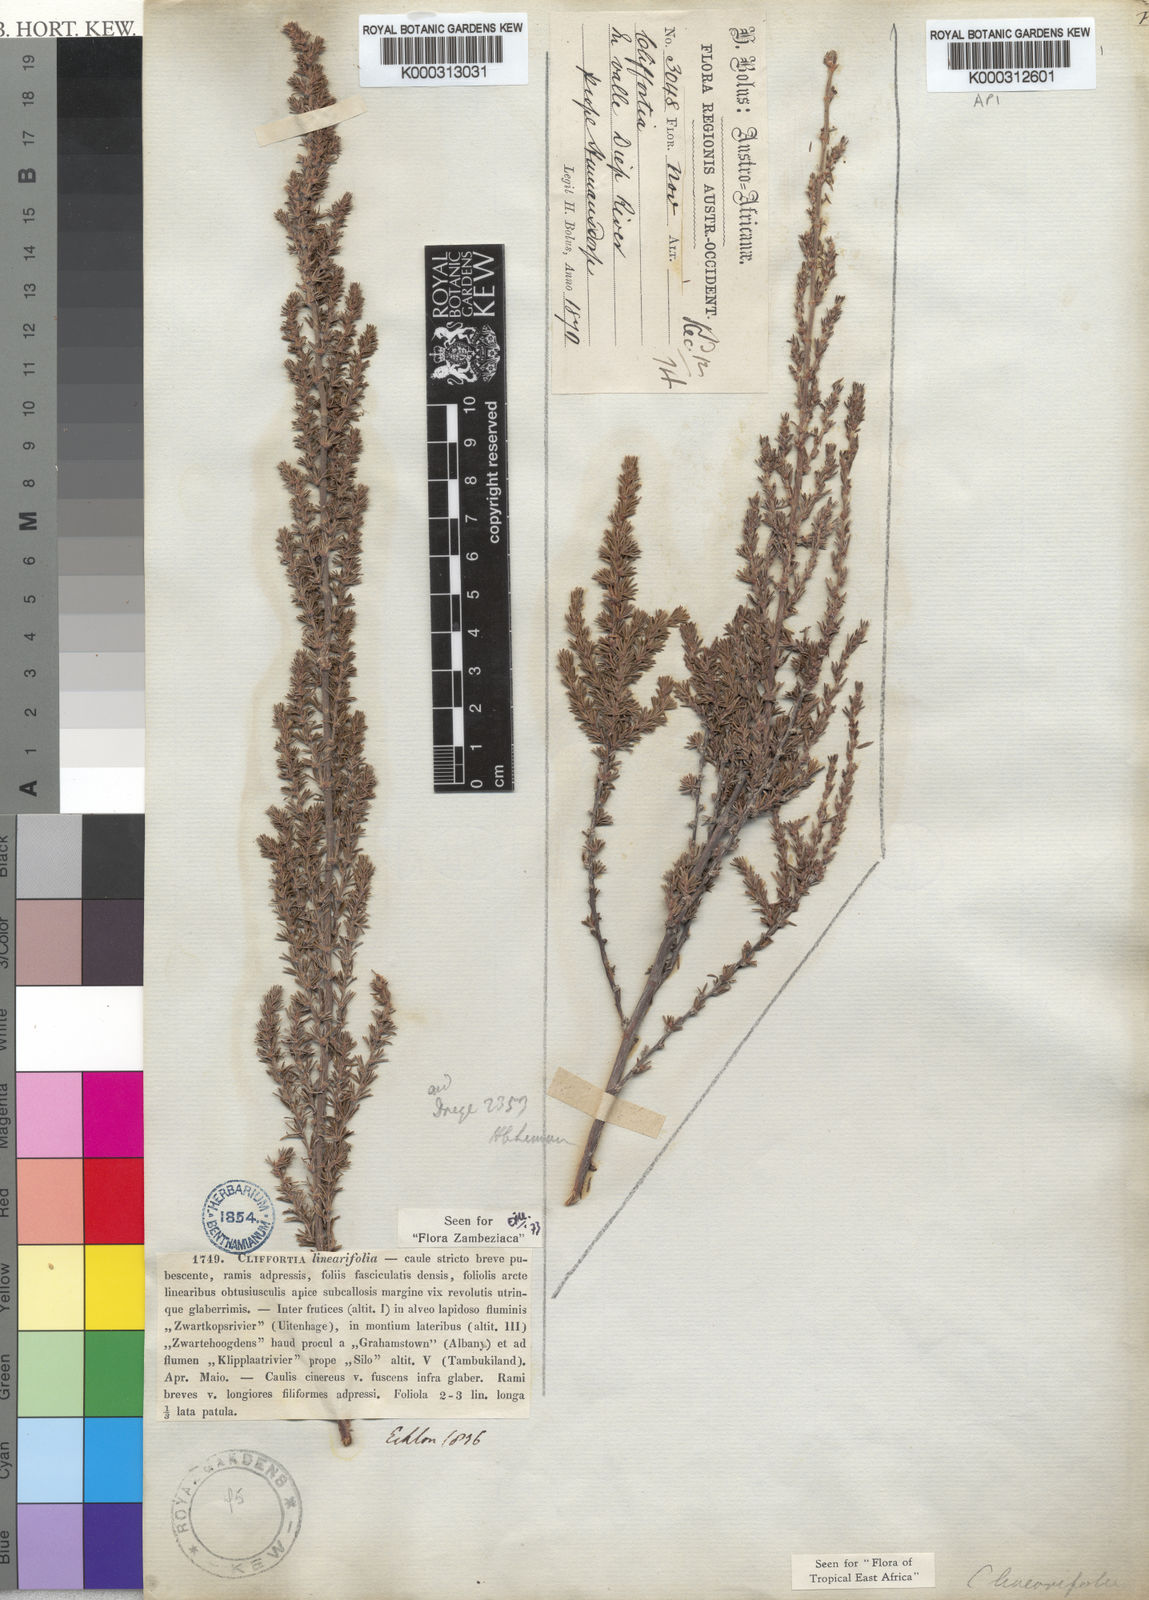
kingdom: Plantae
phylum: Tracheophyta
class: Magnoliopsida
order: Rosales
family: Rosaceae
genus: Cliffortia
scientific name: Cliffortia linearifolia
